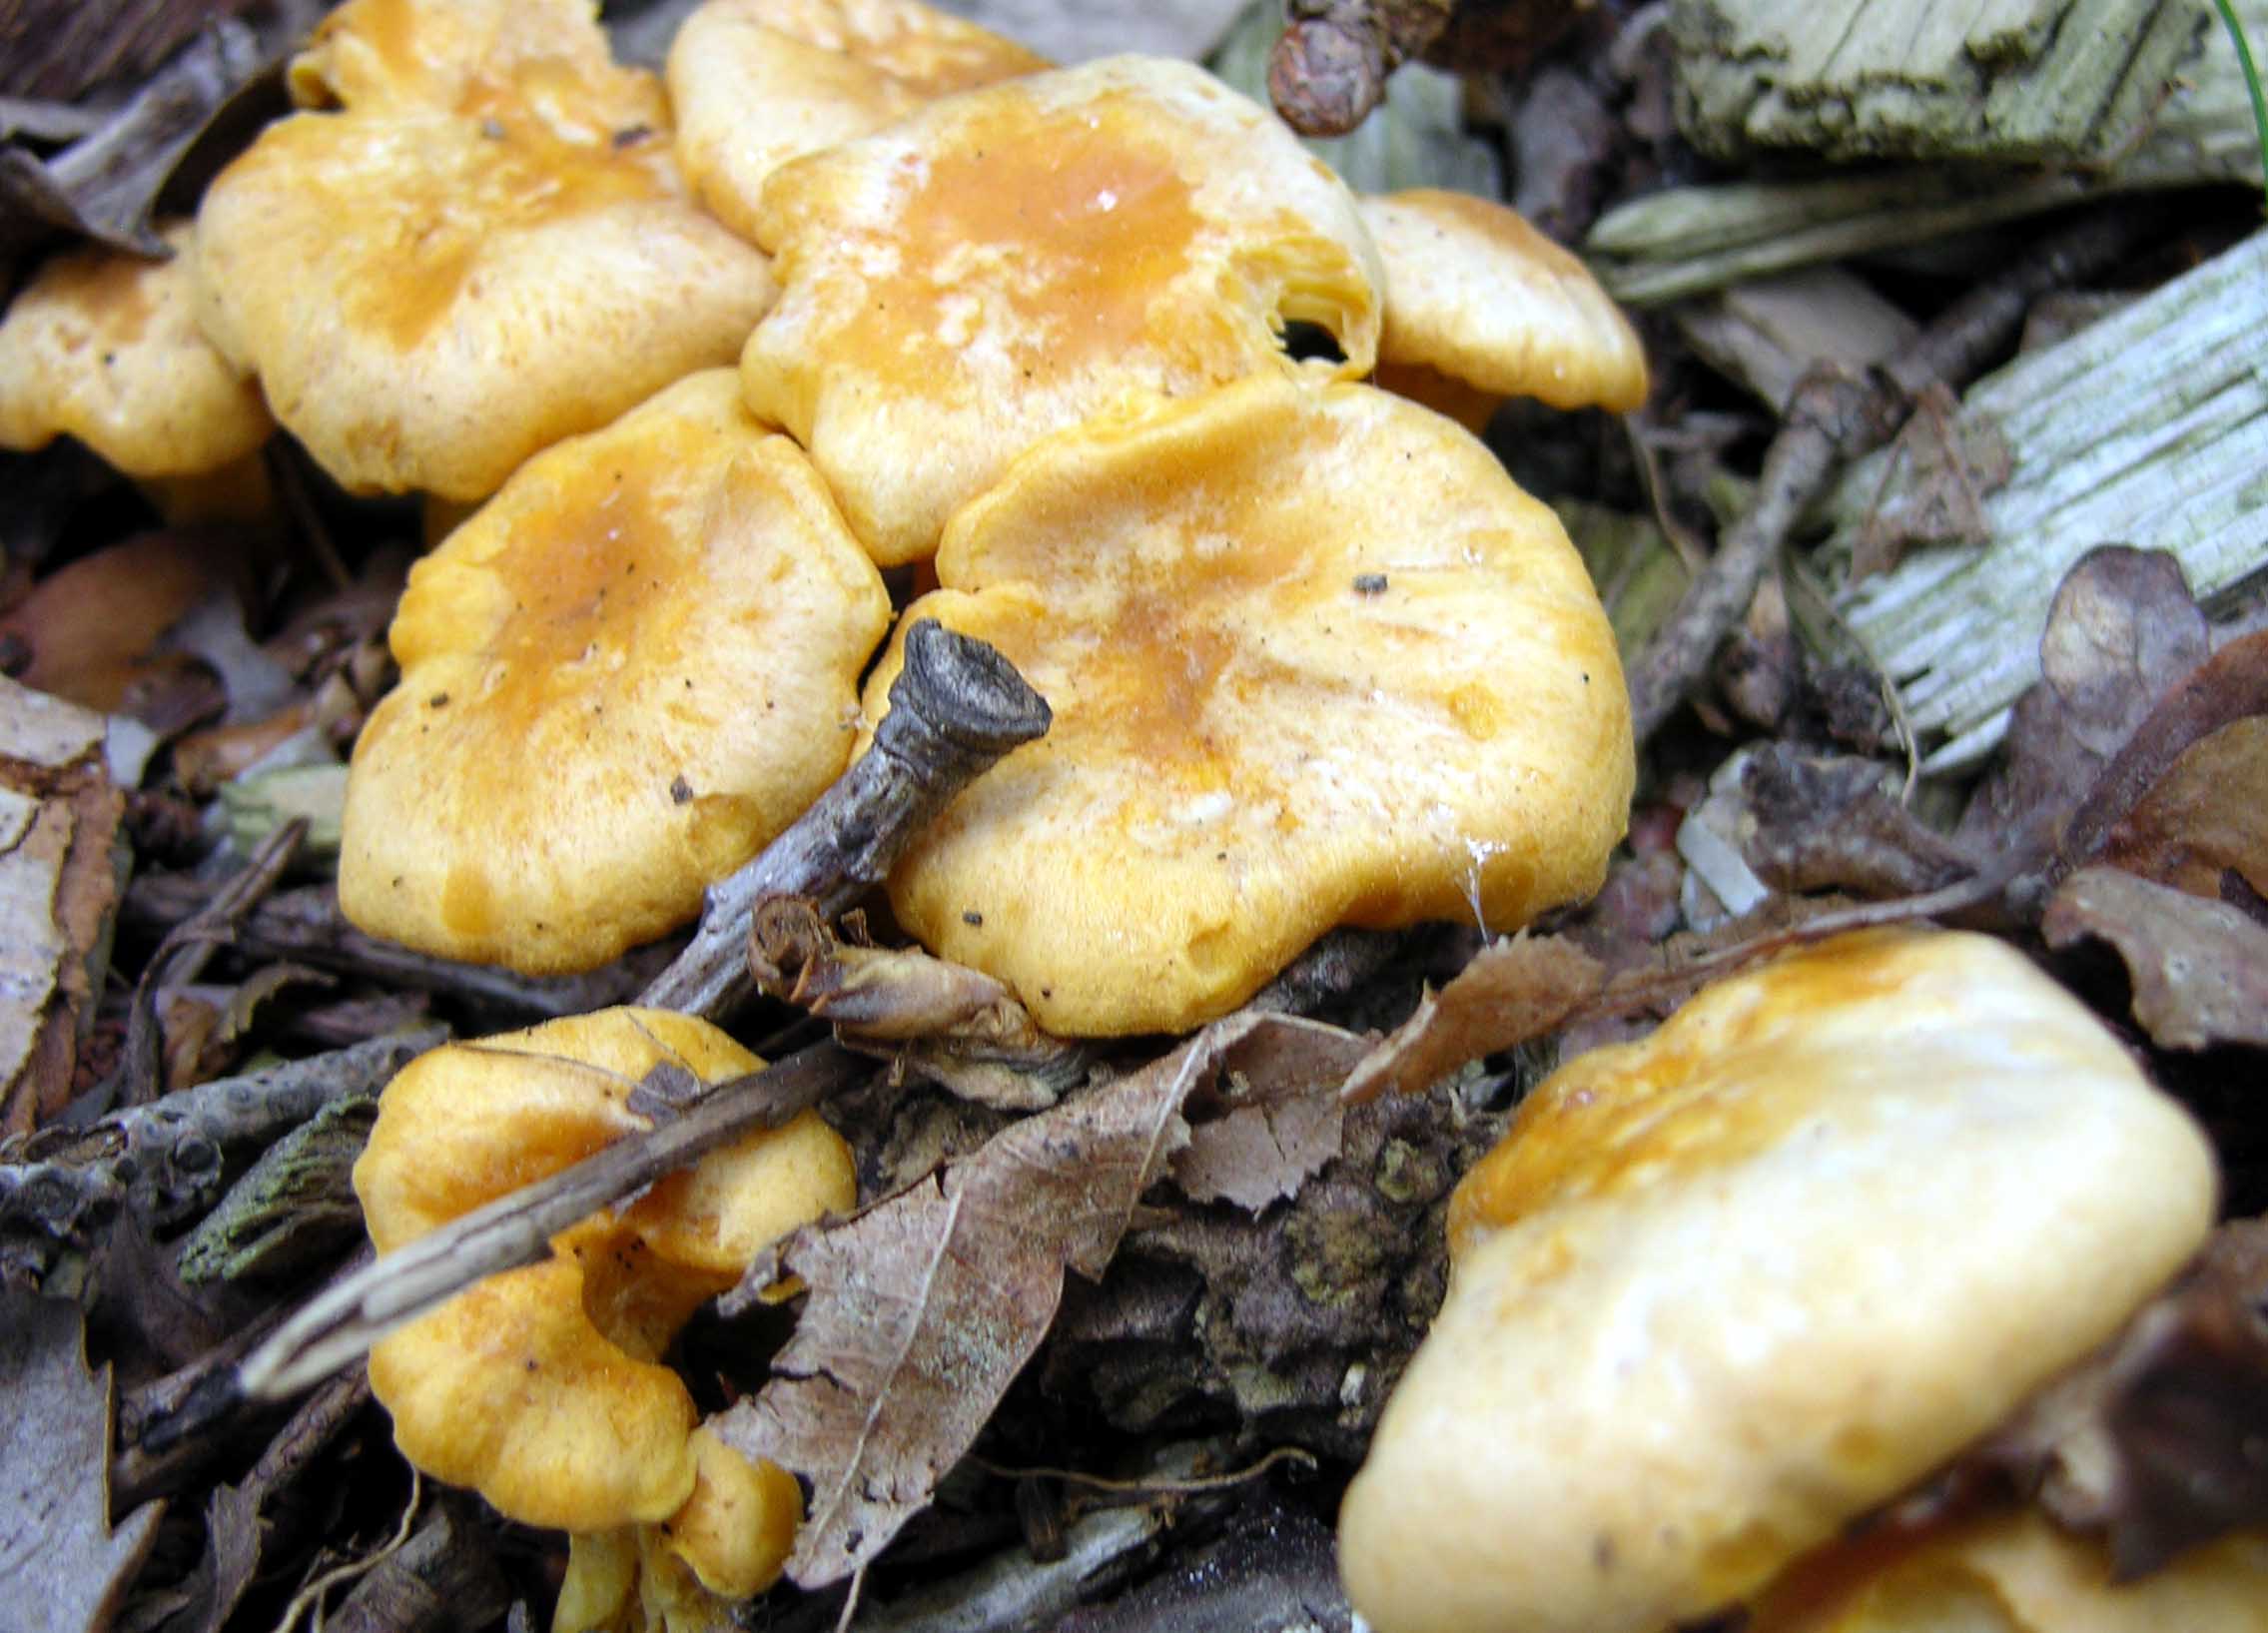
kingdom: Fungi
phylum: Basidiomycota
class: Agaricomycetes
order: Cantharellales
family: Hydnaceae
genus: Cantharellus
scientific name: Cantharellus cibarius
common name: almindelig kantarel
